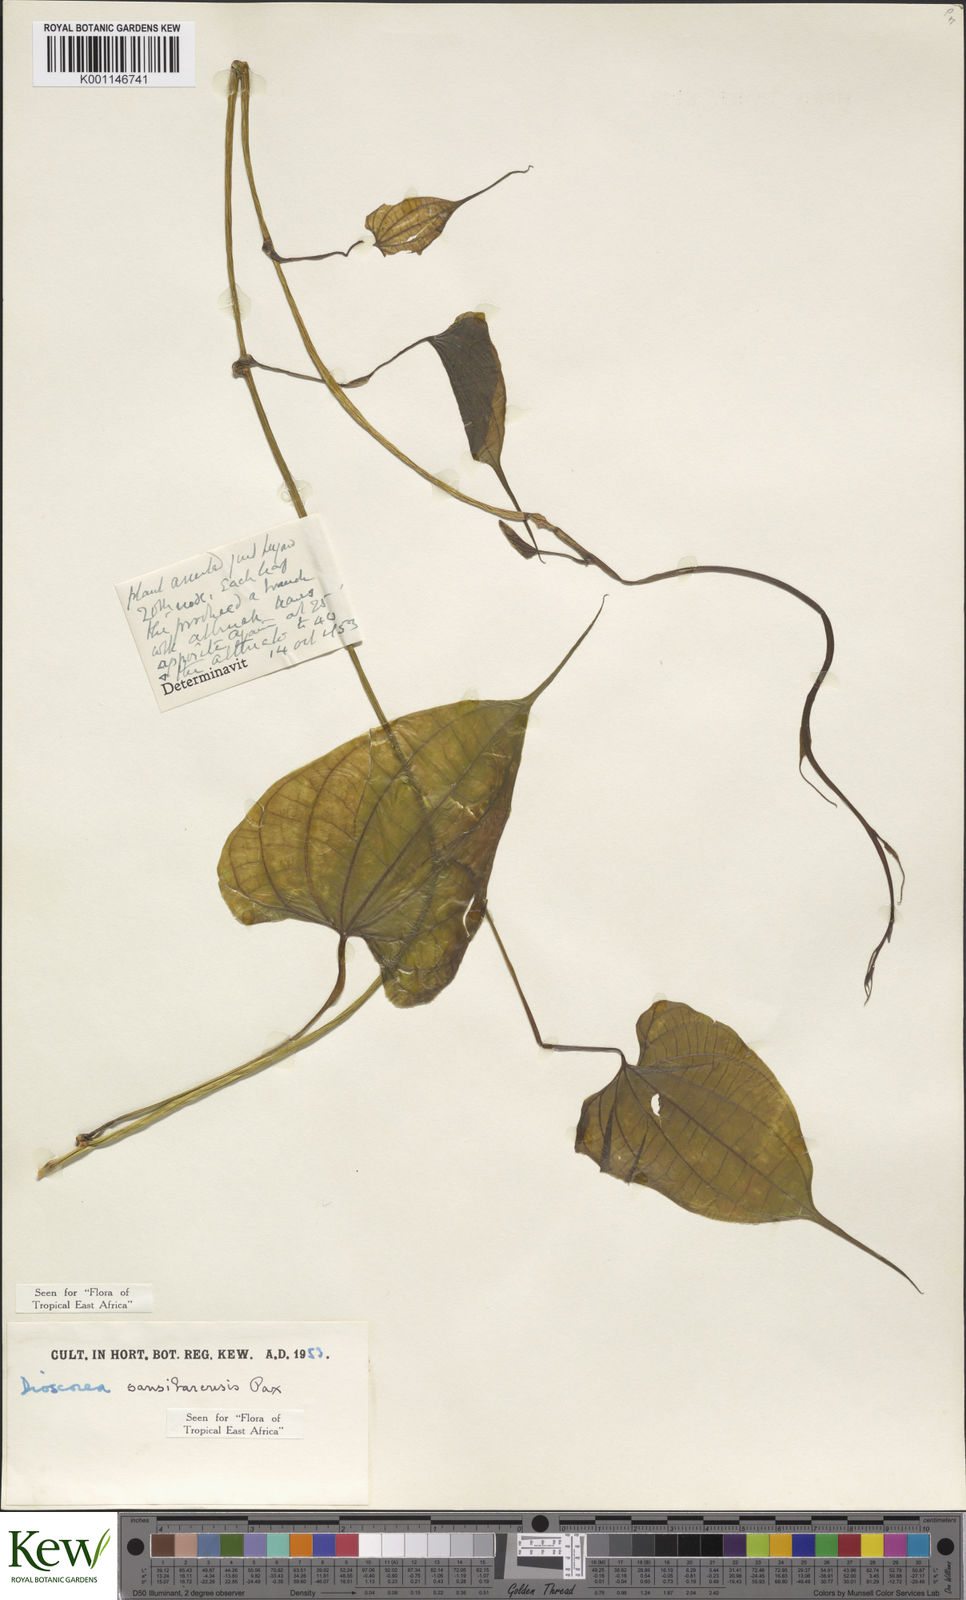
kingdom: Plantae
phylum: Tracheophyta
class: Liliopsida
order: Dioscoreales
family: Dioscoreaceae
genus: Dioscorea
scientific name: Dioscorea sansibarensis
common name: Zanzibar yam
